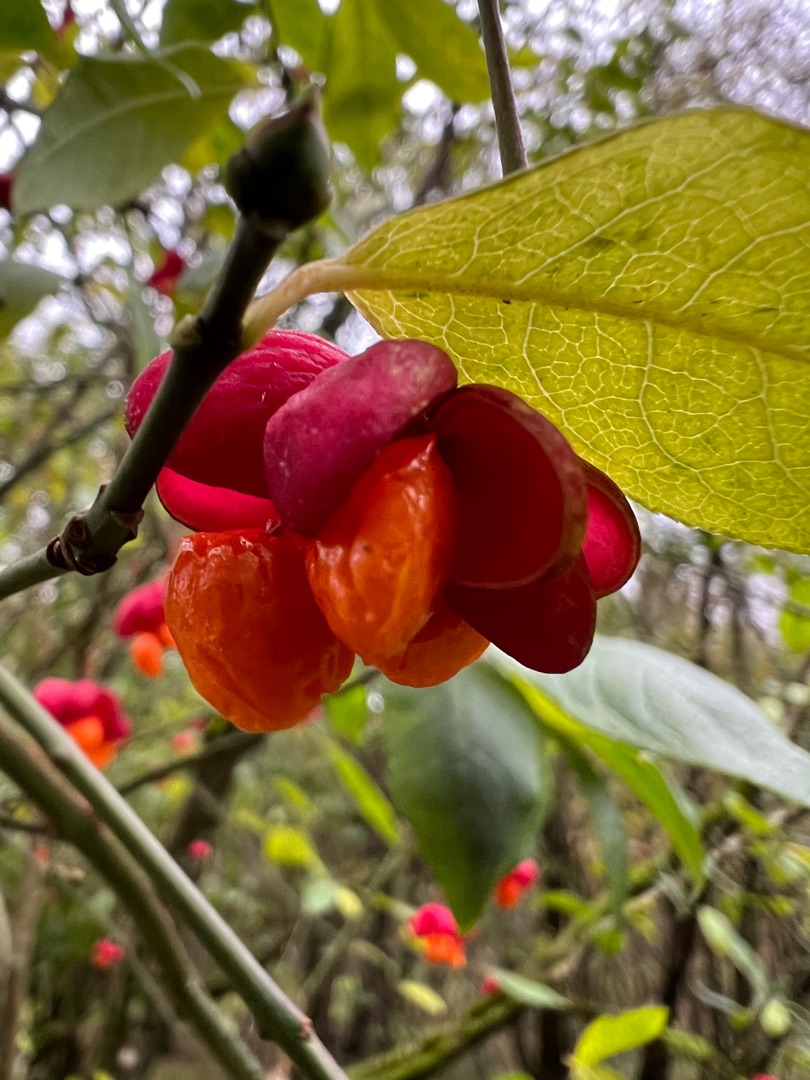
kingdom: Plantae
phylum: Tracheophyta
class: Magnoliopsida
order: Celastrales
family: Celastraceae
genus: Euonymus
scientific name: Euonymus europaeus
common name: Benved
